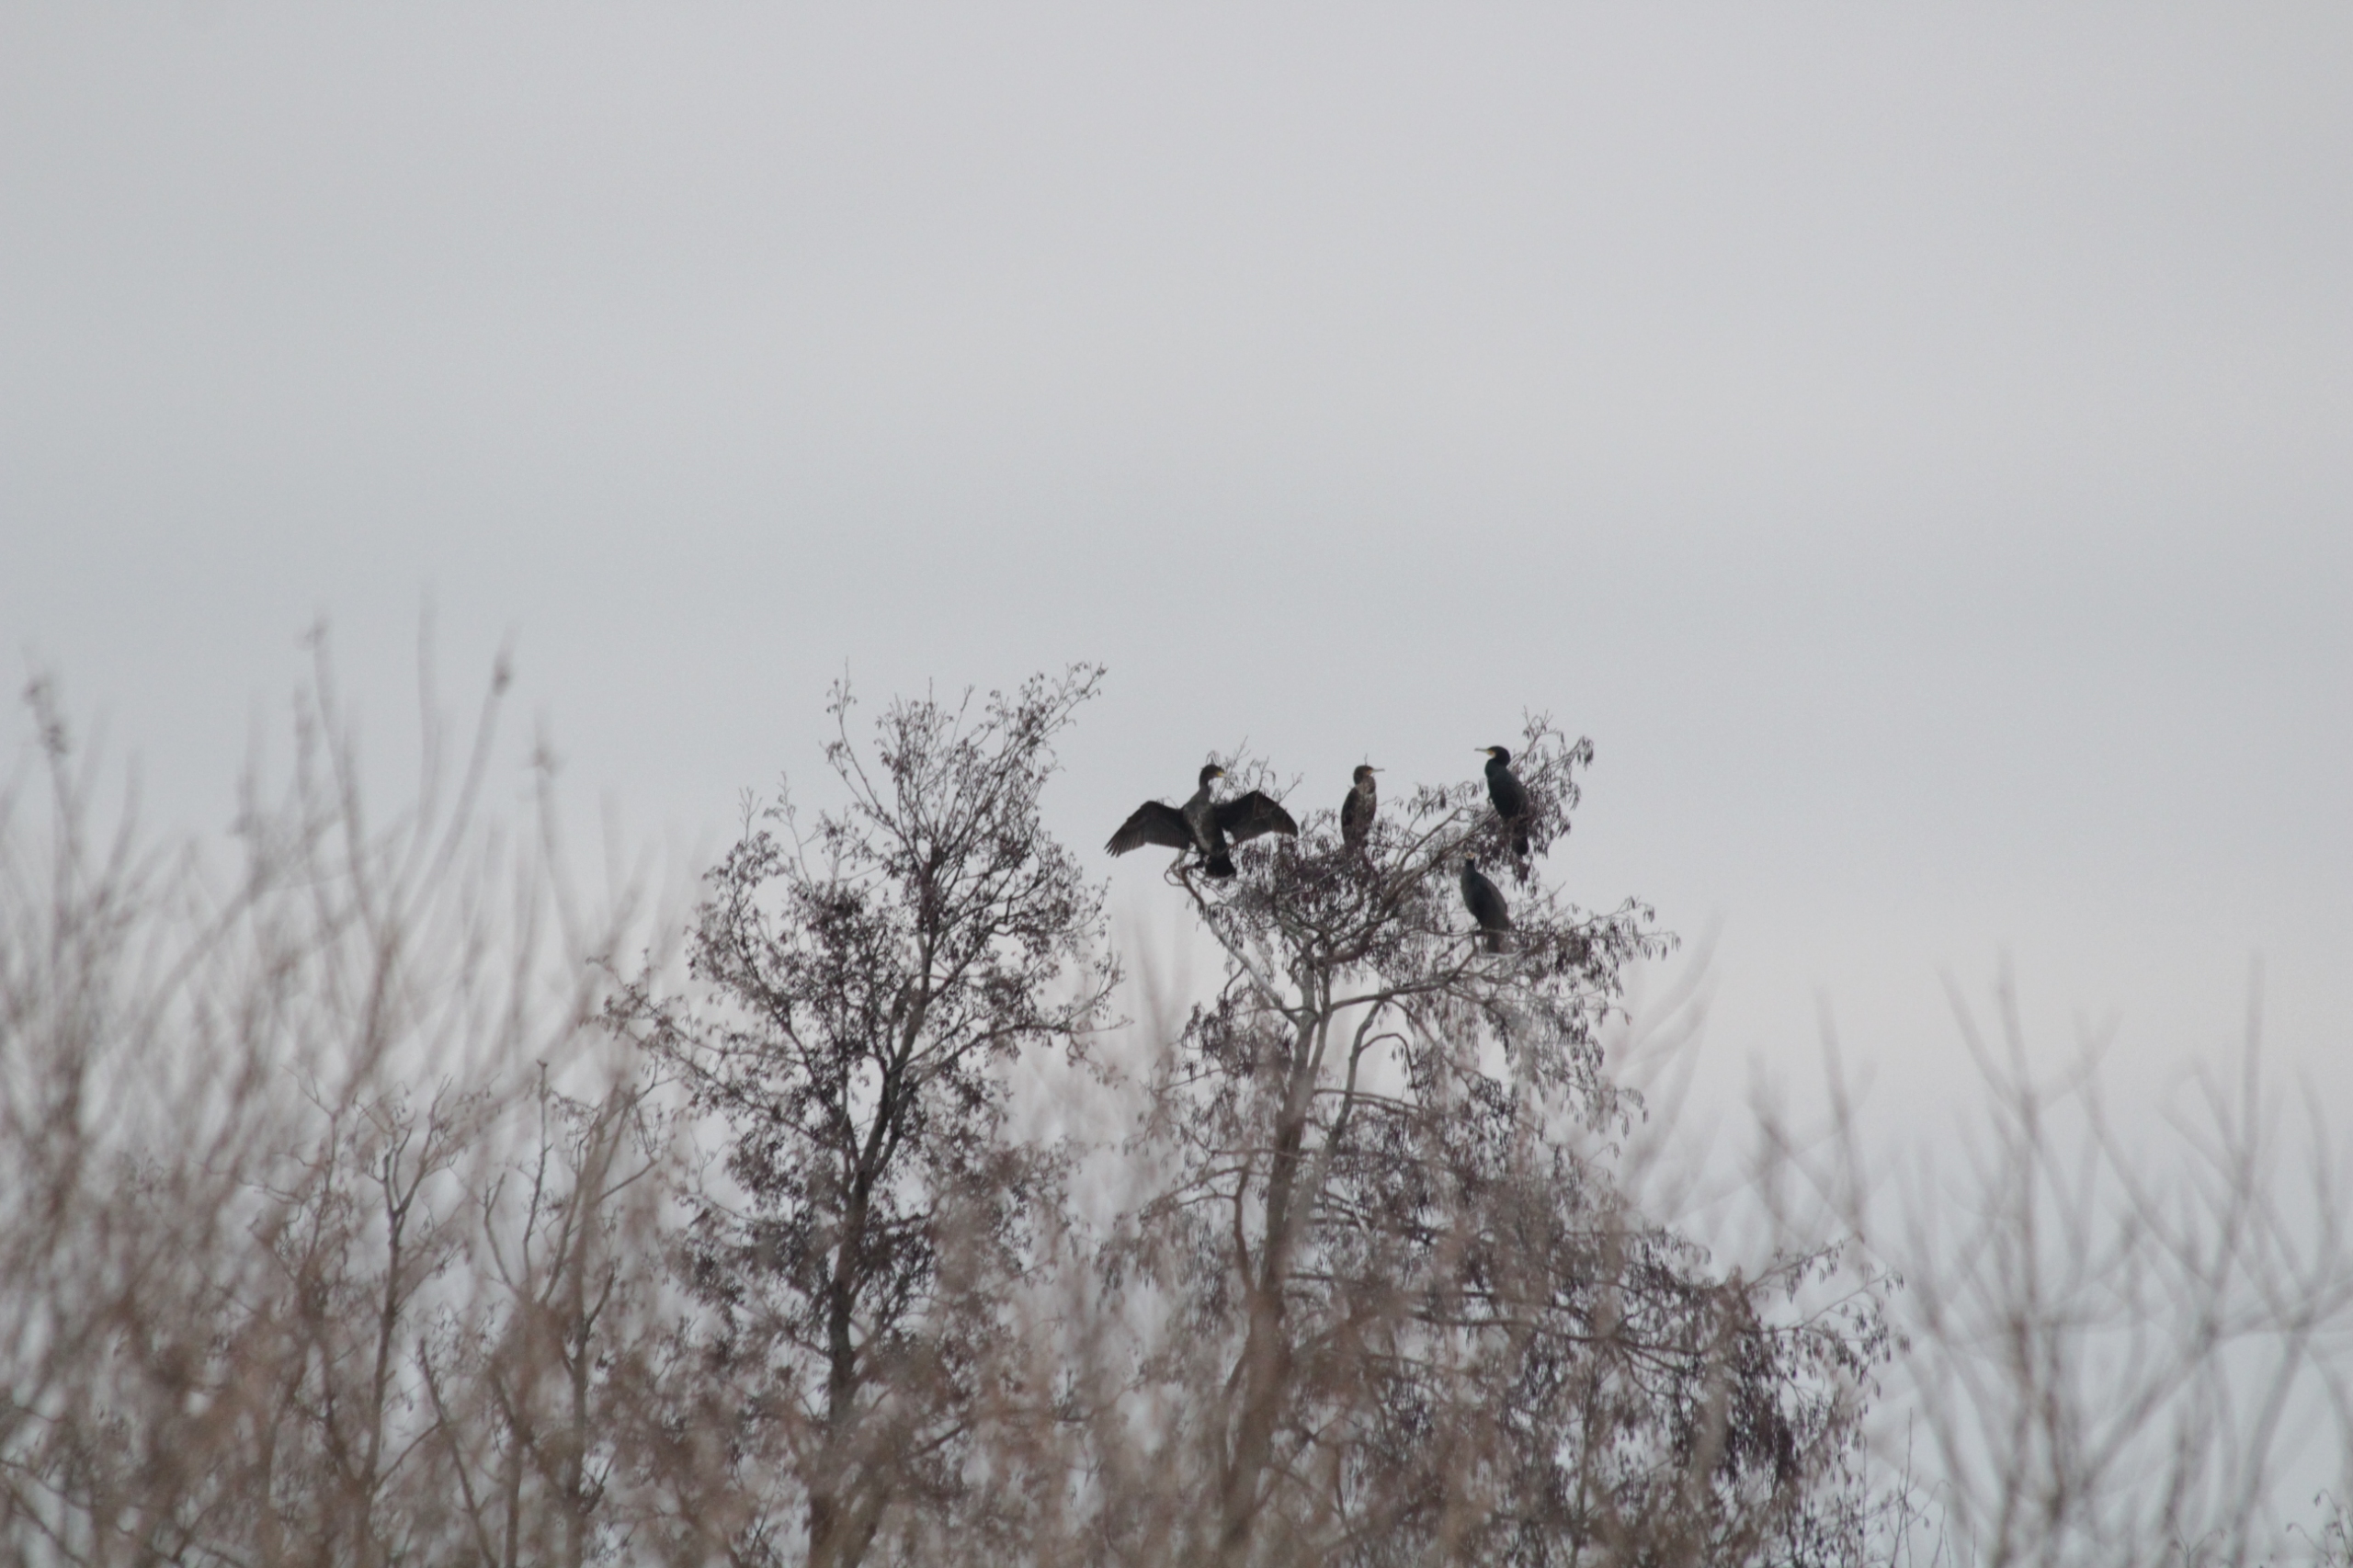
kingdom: Animalia
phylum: Chordata
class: Aves
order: Suliformes
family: Phalacrocoracidae
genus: Phalacrocorax
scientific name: Phalacrocorax carbo
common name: Skarv
